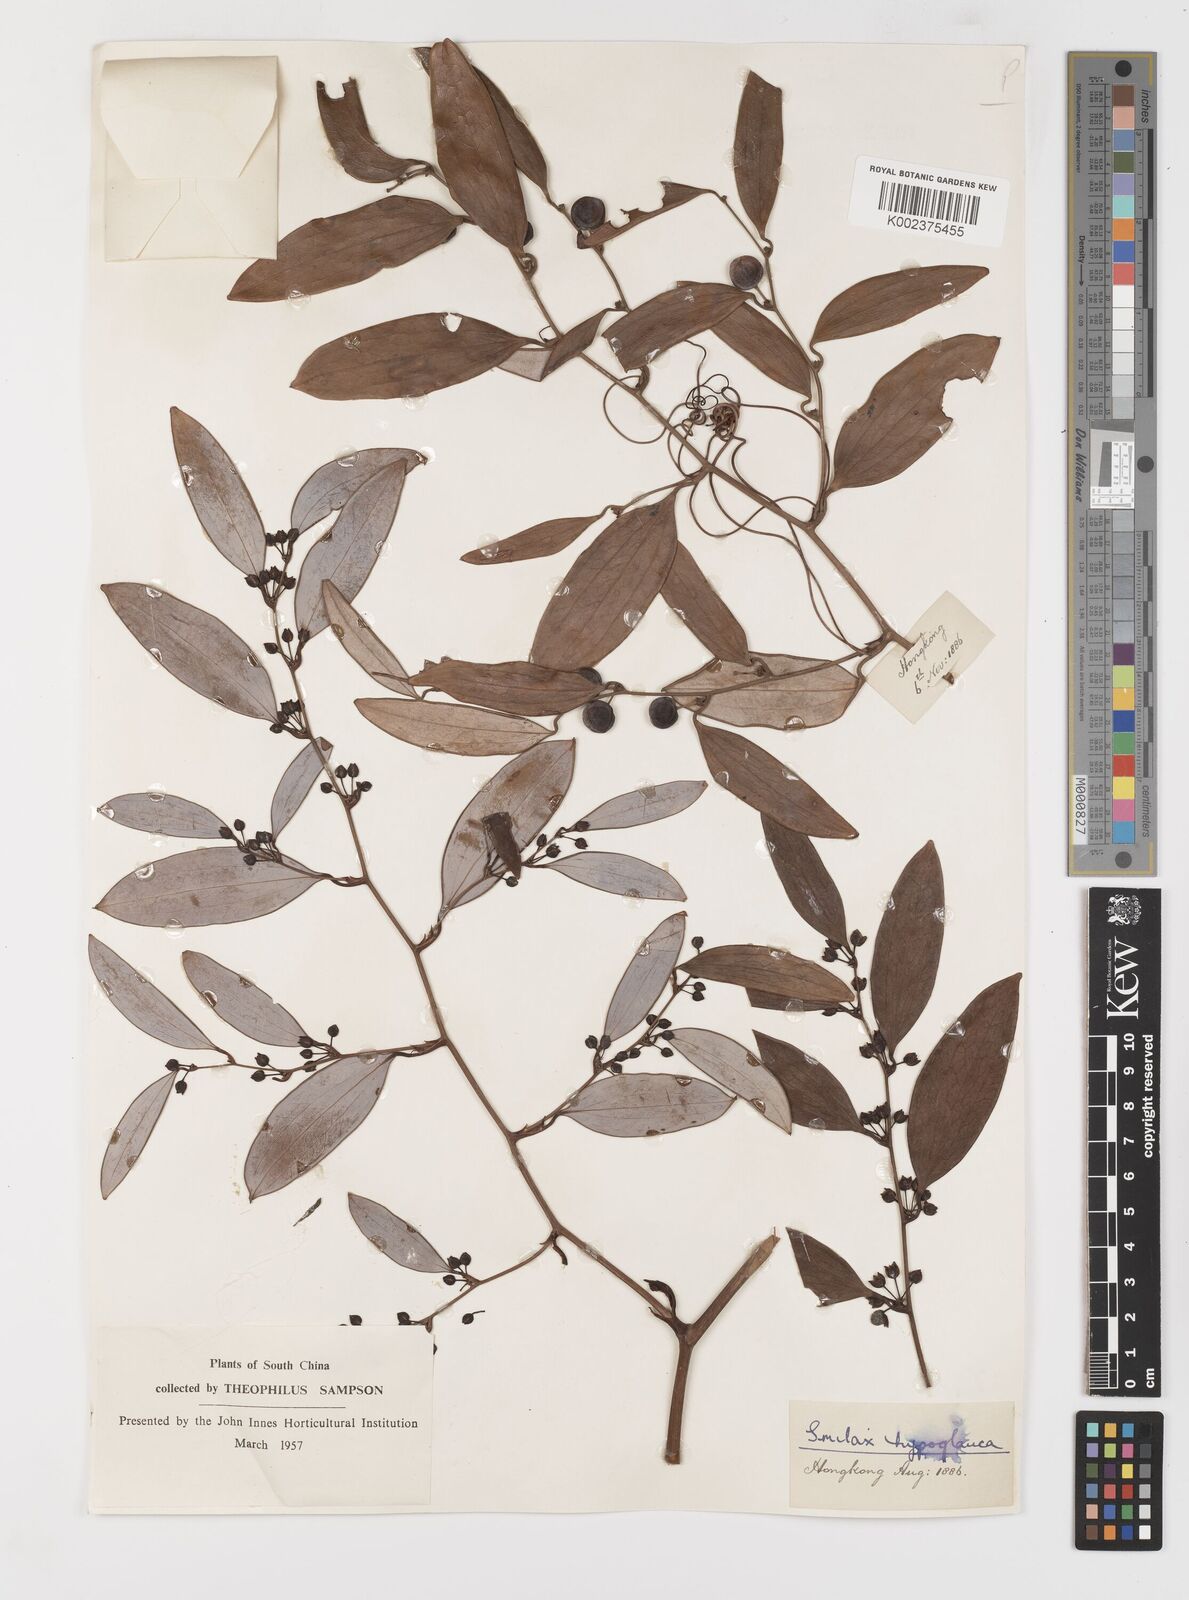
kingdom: Plantae
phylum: Tracheophyta
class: Liliopsida
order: Liliales
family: Smilacaceae
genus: Smilax
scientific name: Smilax hypoglauca
